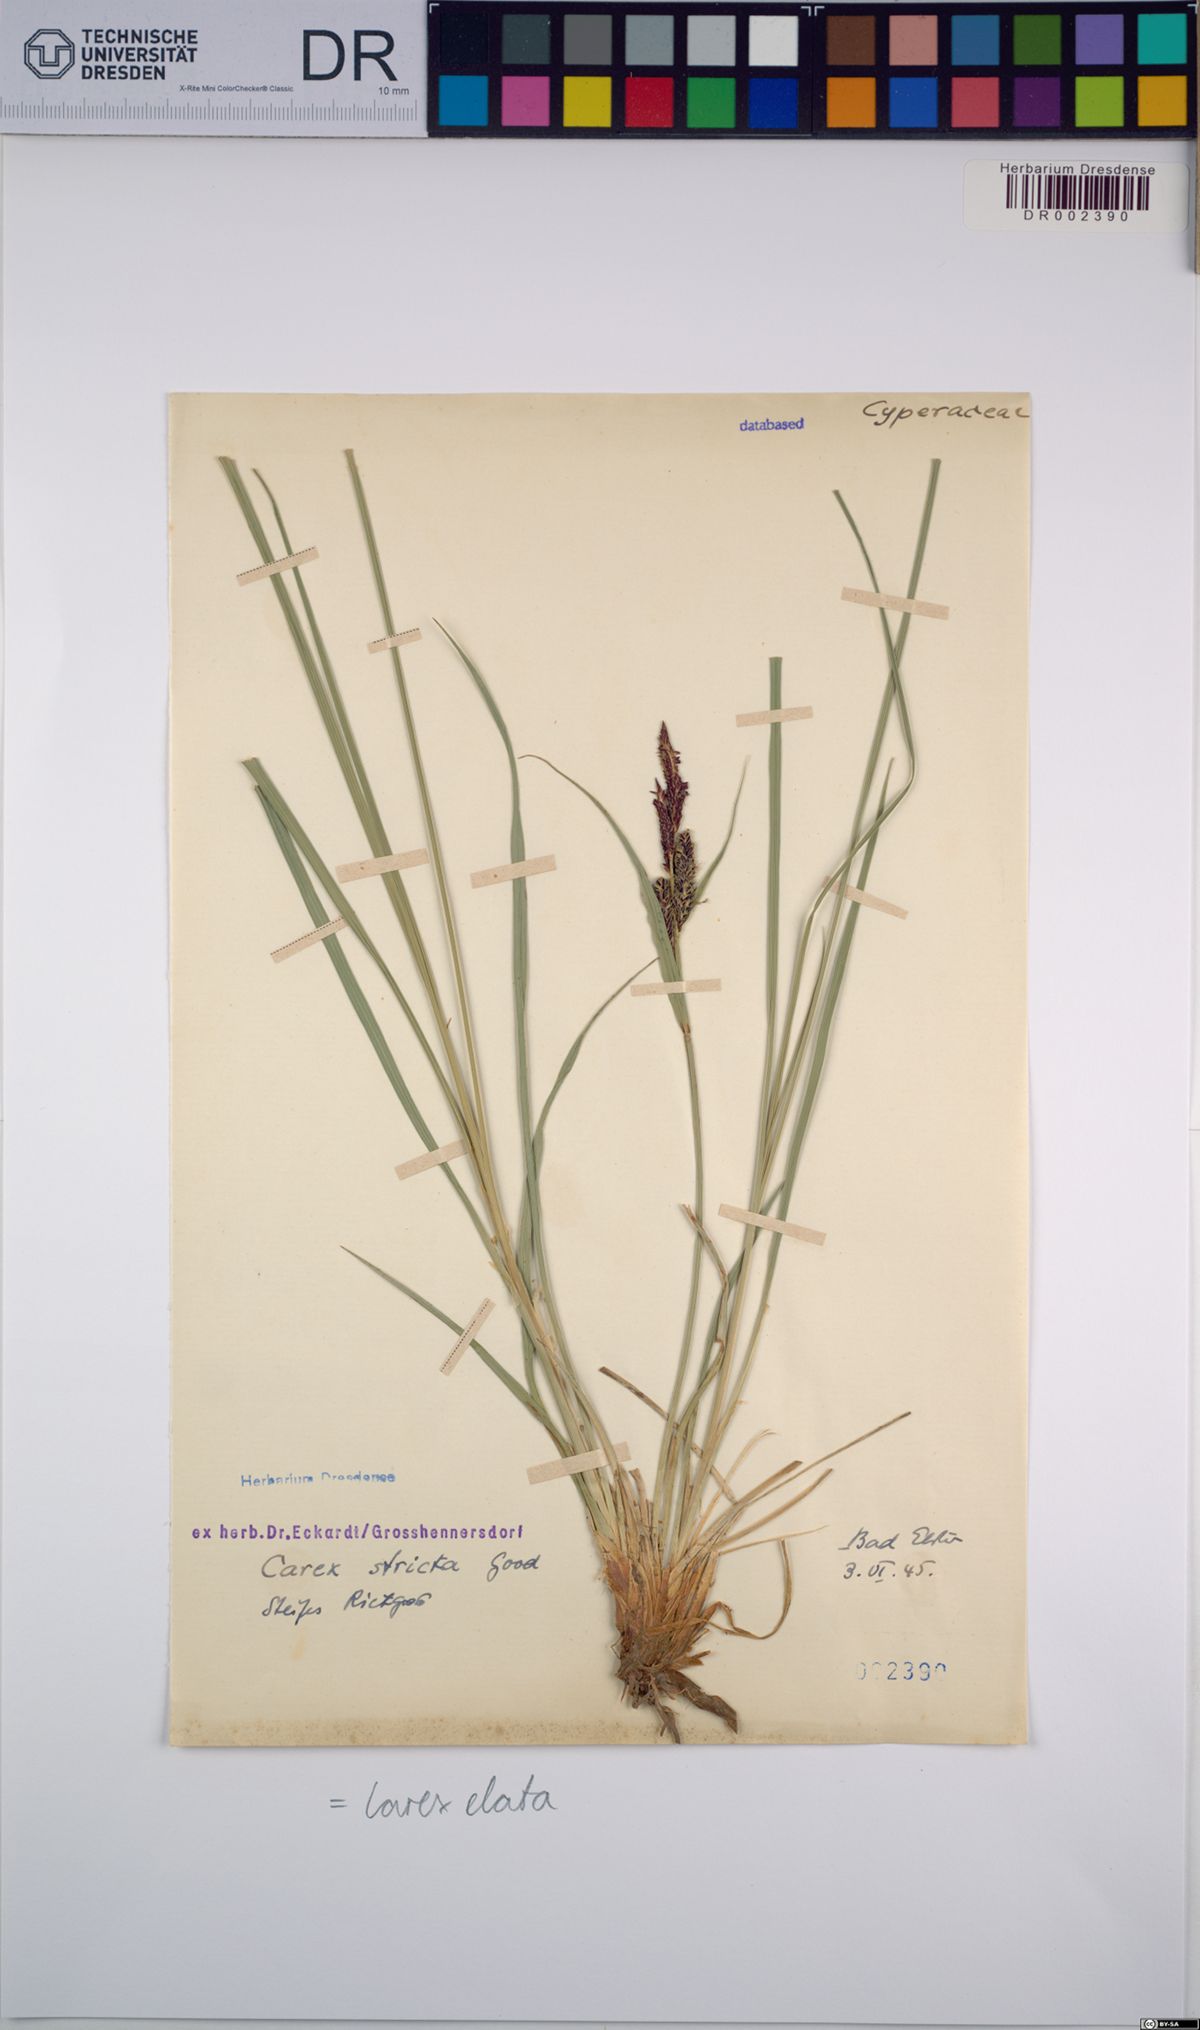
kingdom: Plantae
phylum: Tracheophyta
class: Liliopsida
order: Poales
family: Cyperaceae
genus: Carex
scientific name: Carex elata
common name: Tufted sedge
